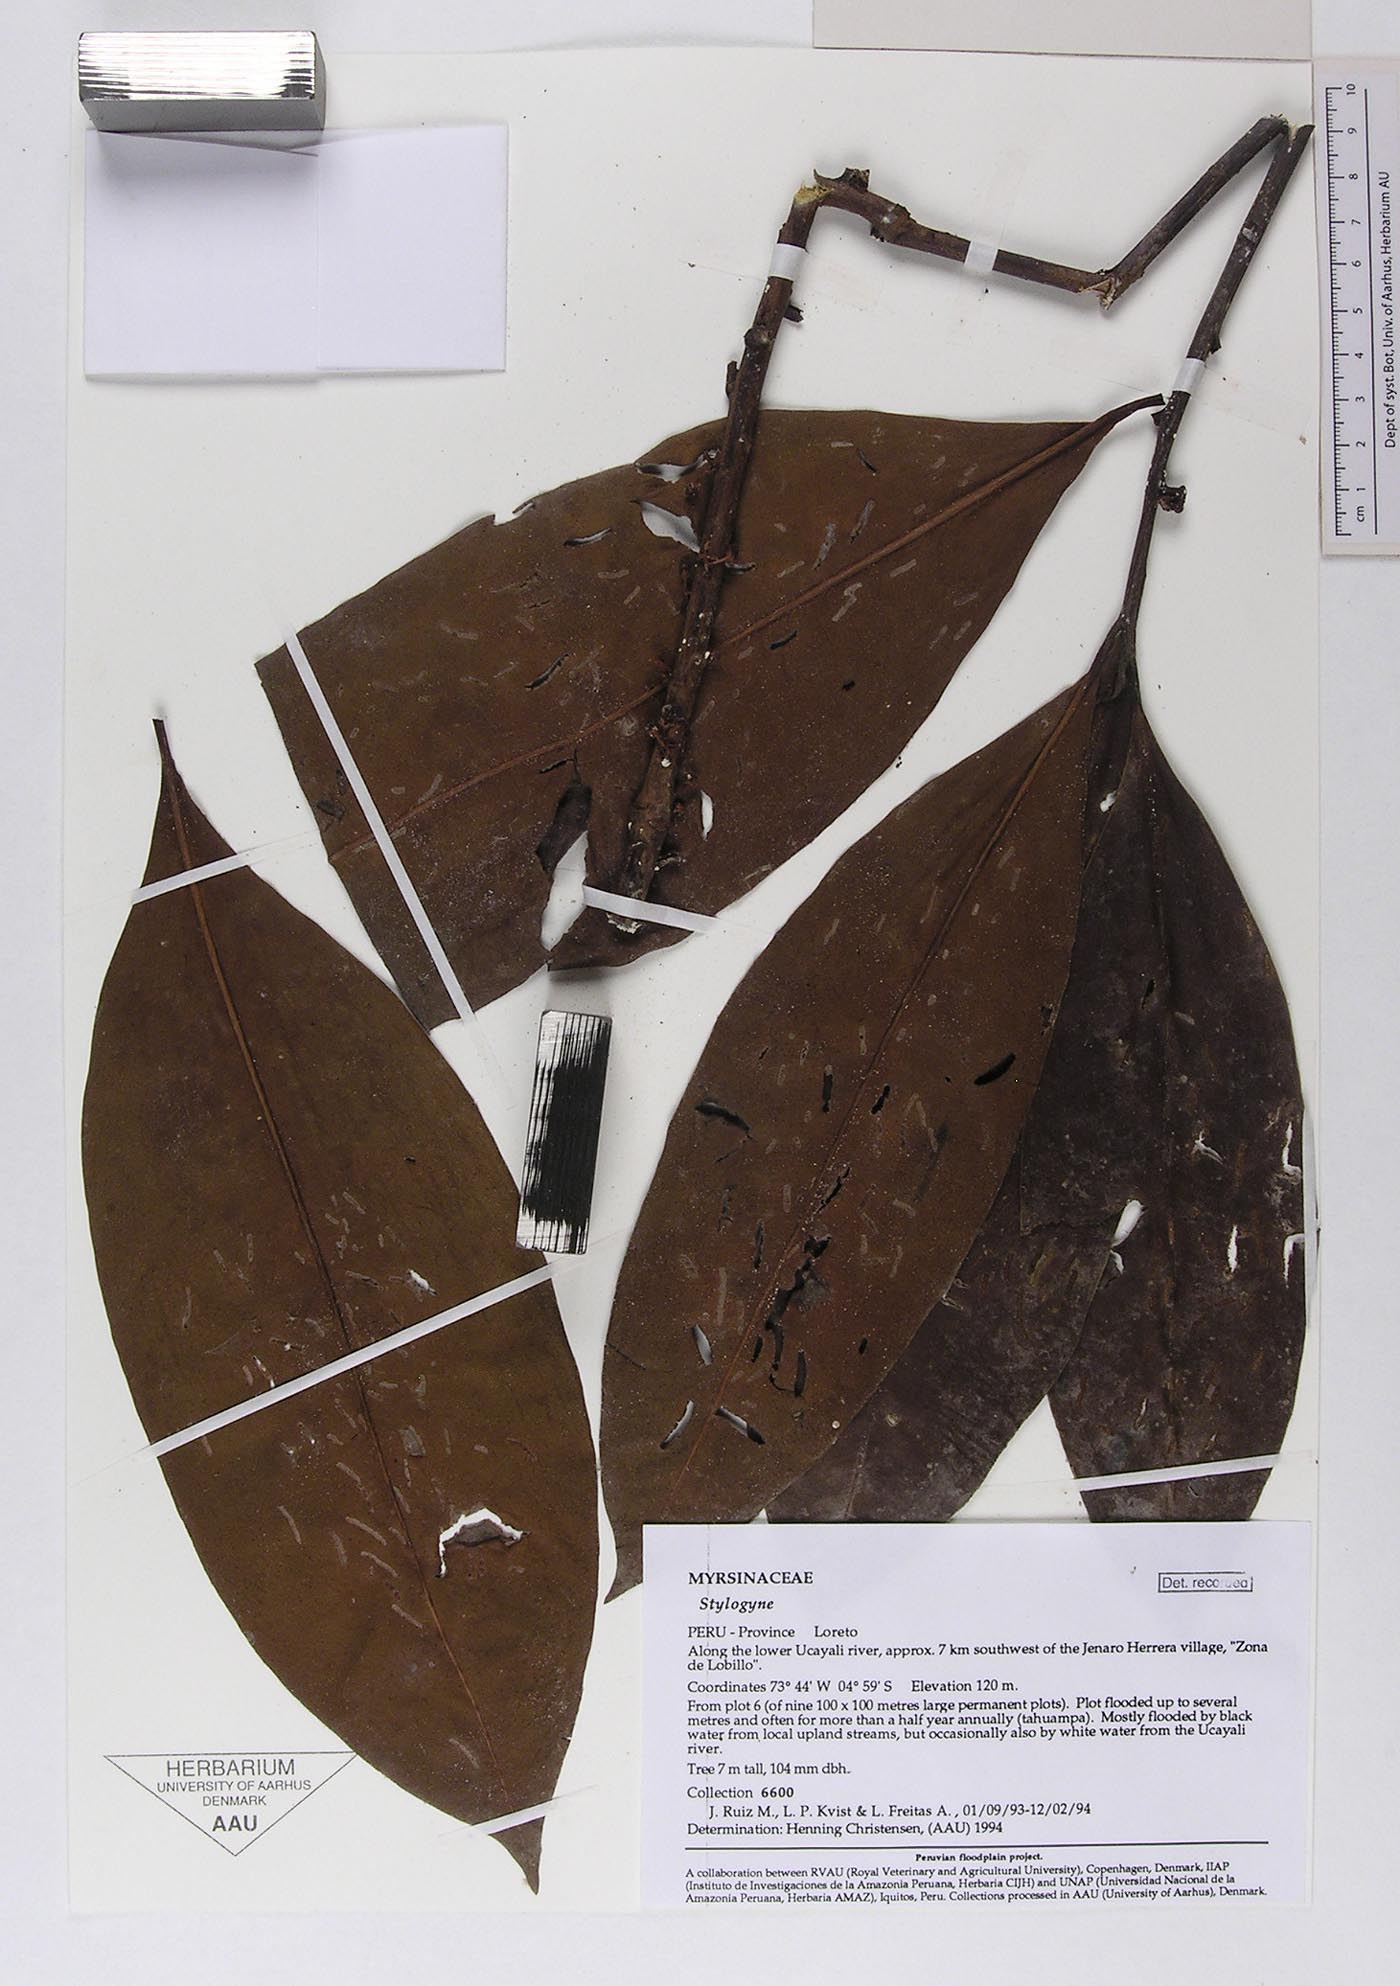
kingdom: Plantae
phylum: Tracheophyta
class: Magnoliopsida
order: Ericales
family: Primulaceae
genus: Stylogyne
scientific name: Stylogyne
